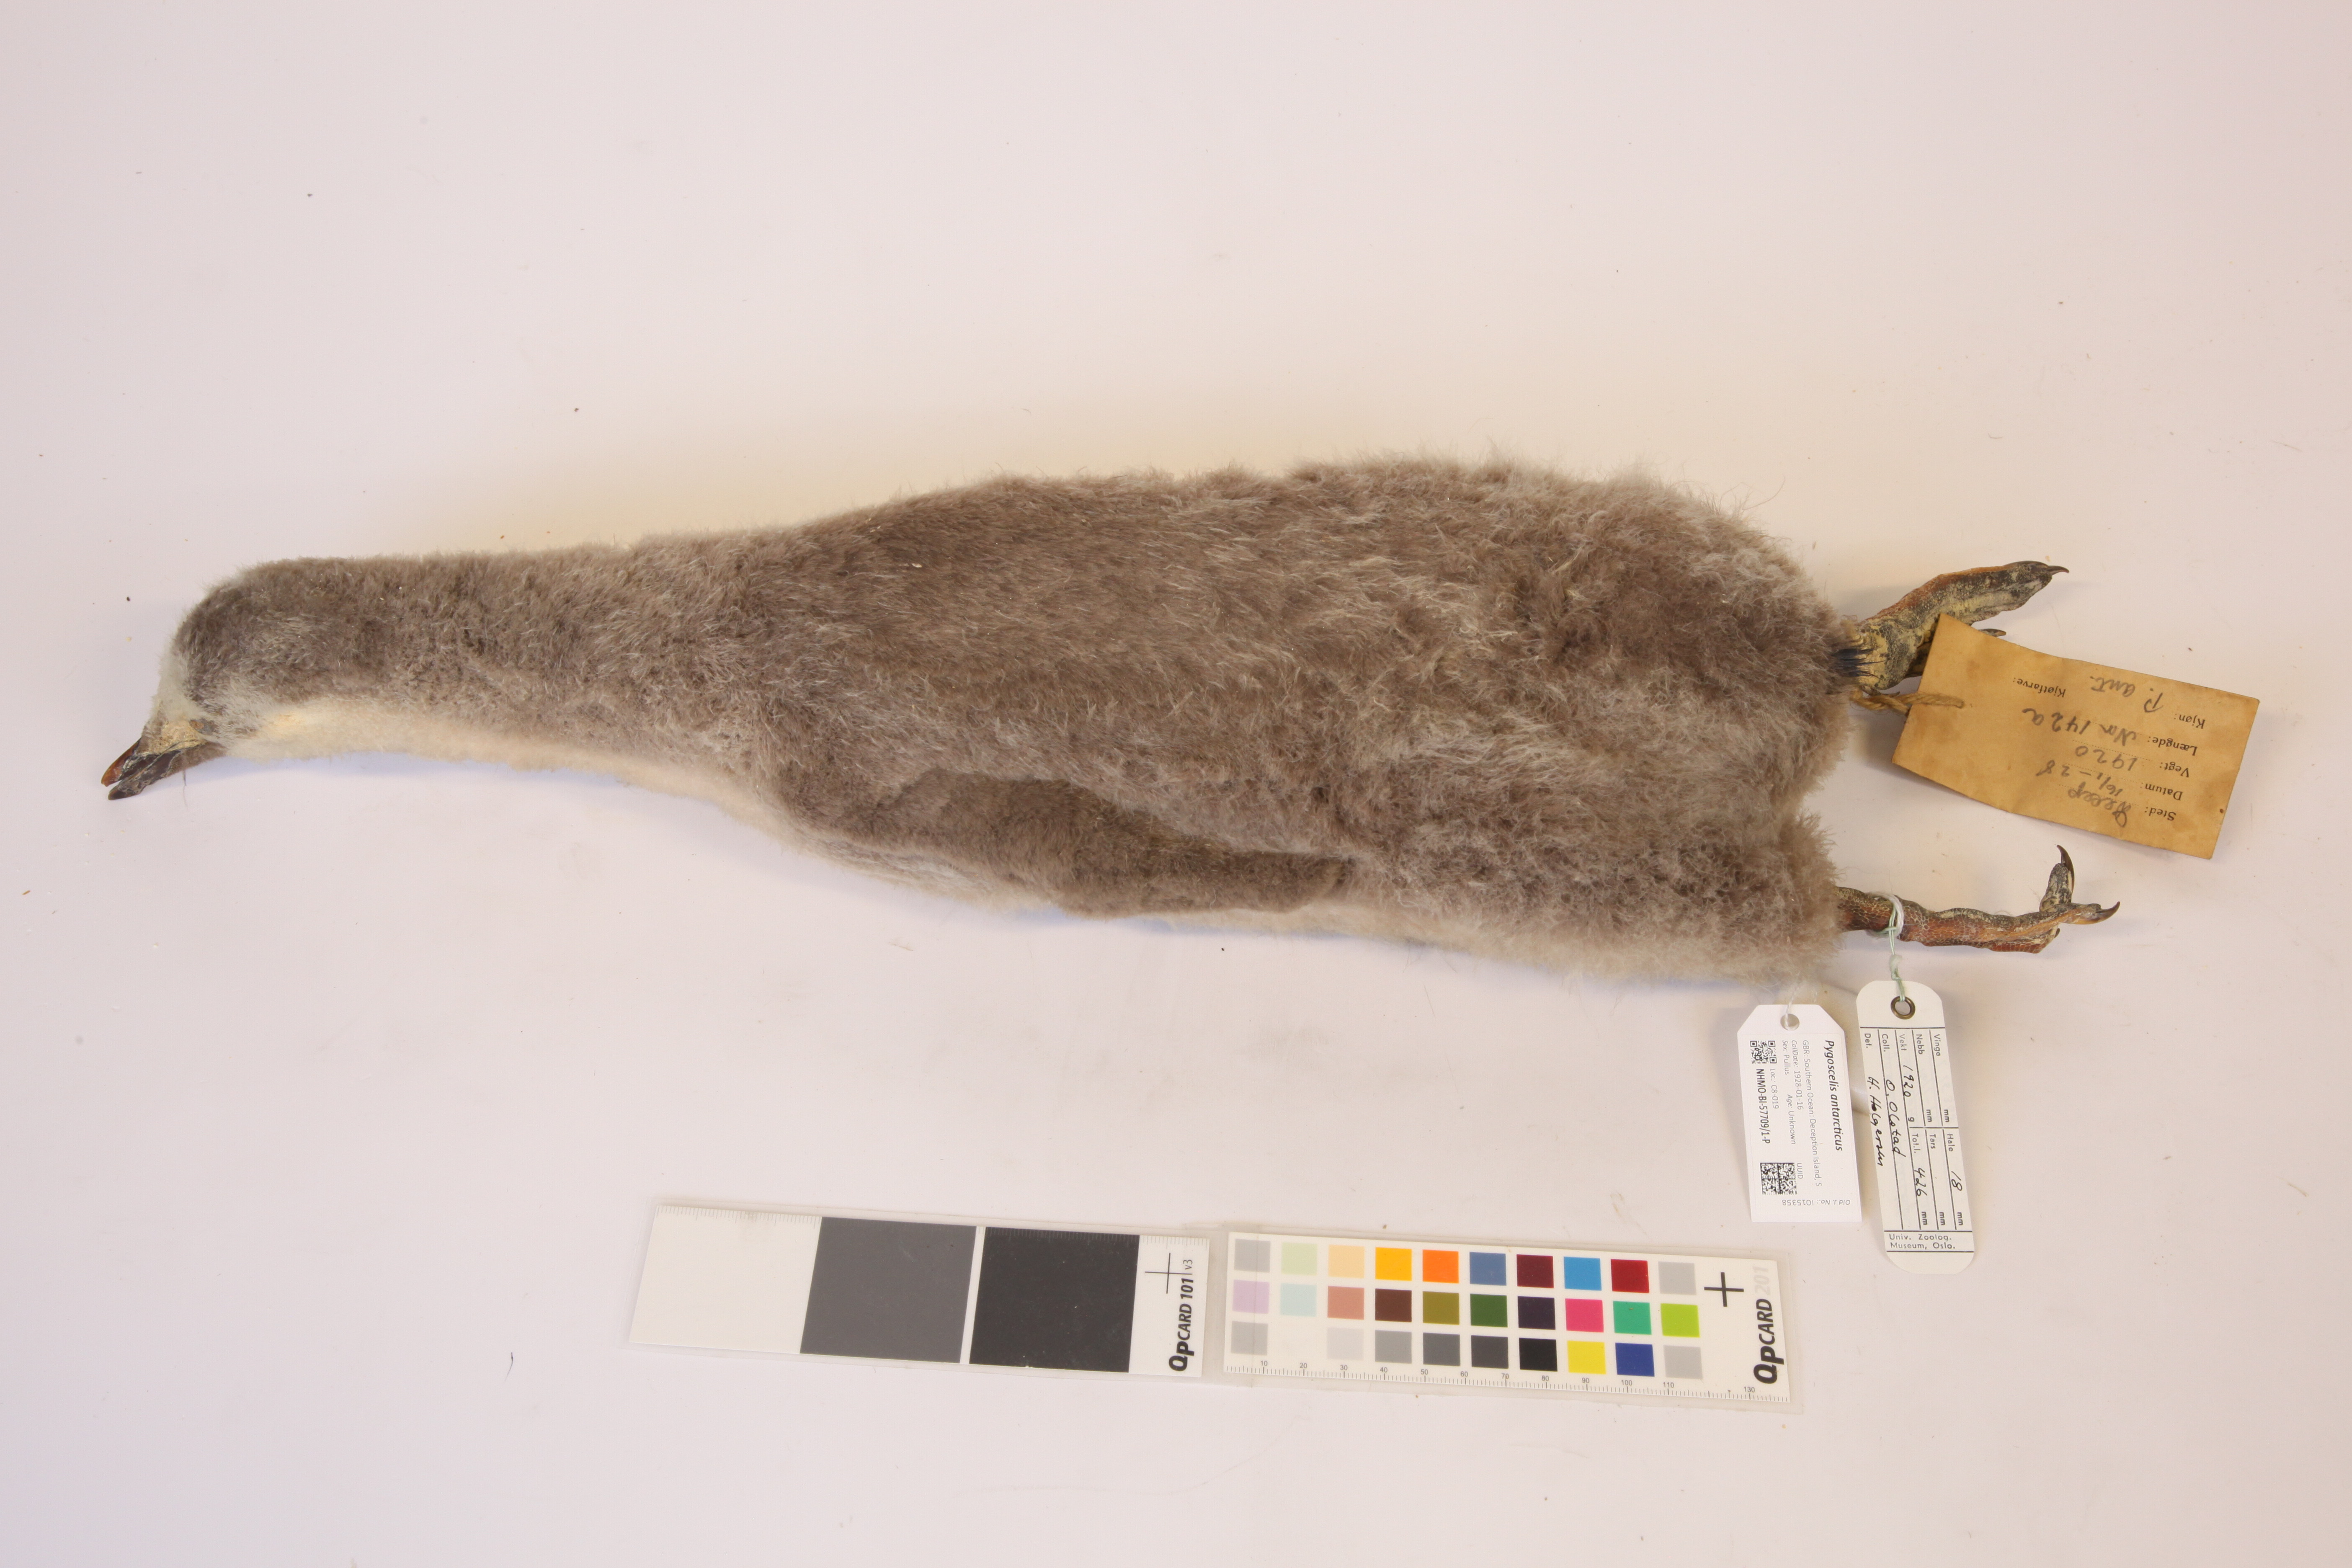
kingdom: Animalia
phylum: Chordata
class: Aves
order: Sphenisciformes
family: Spheniscidae
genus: Pygoscelis
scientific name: Pygoscelis antarcticus
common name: Chinstrap penguin
